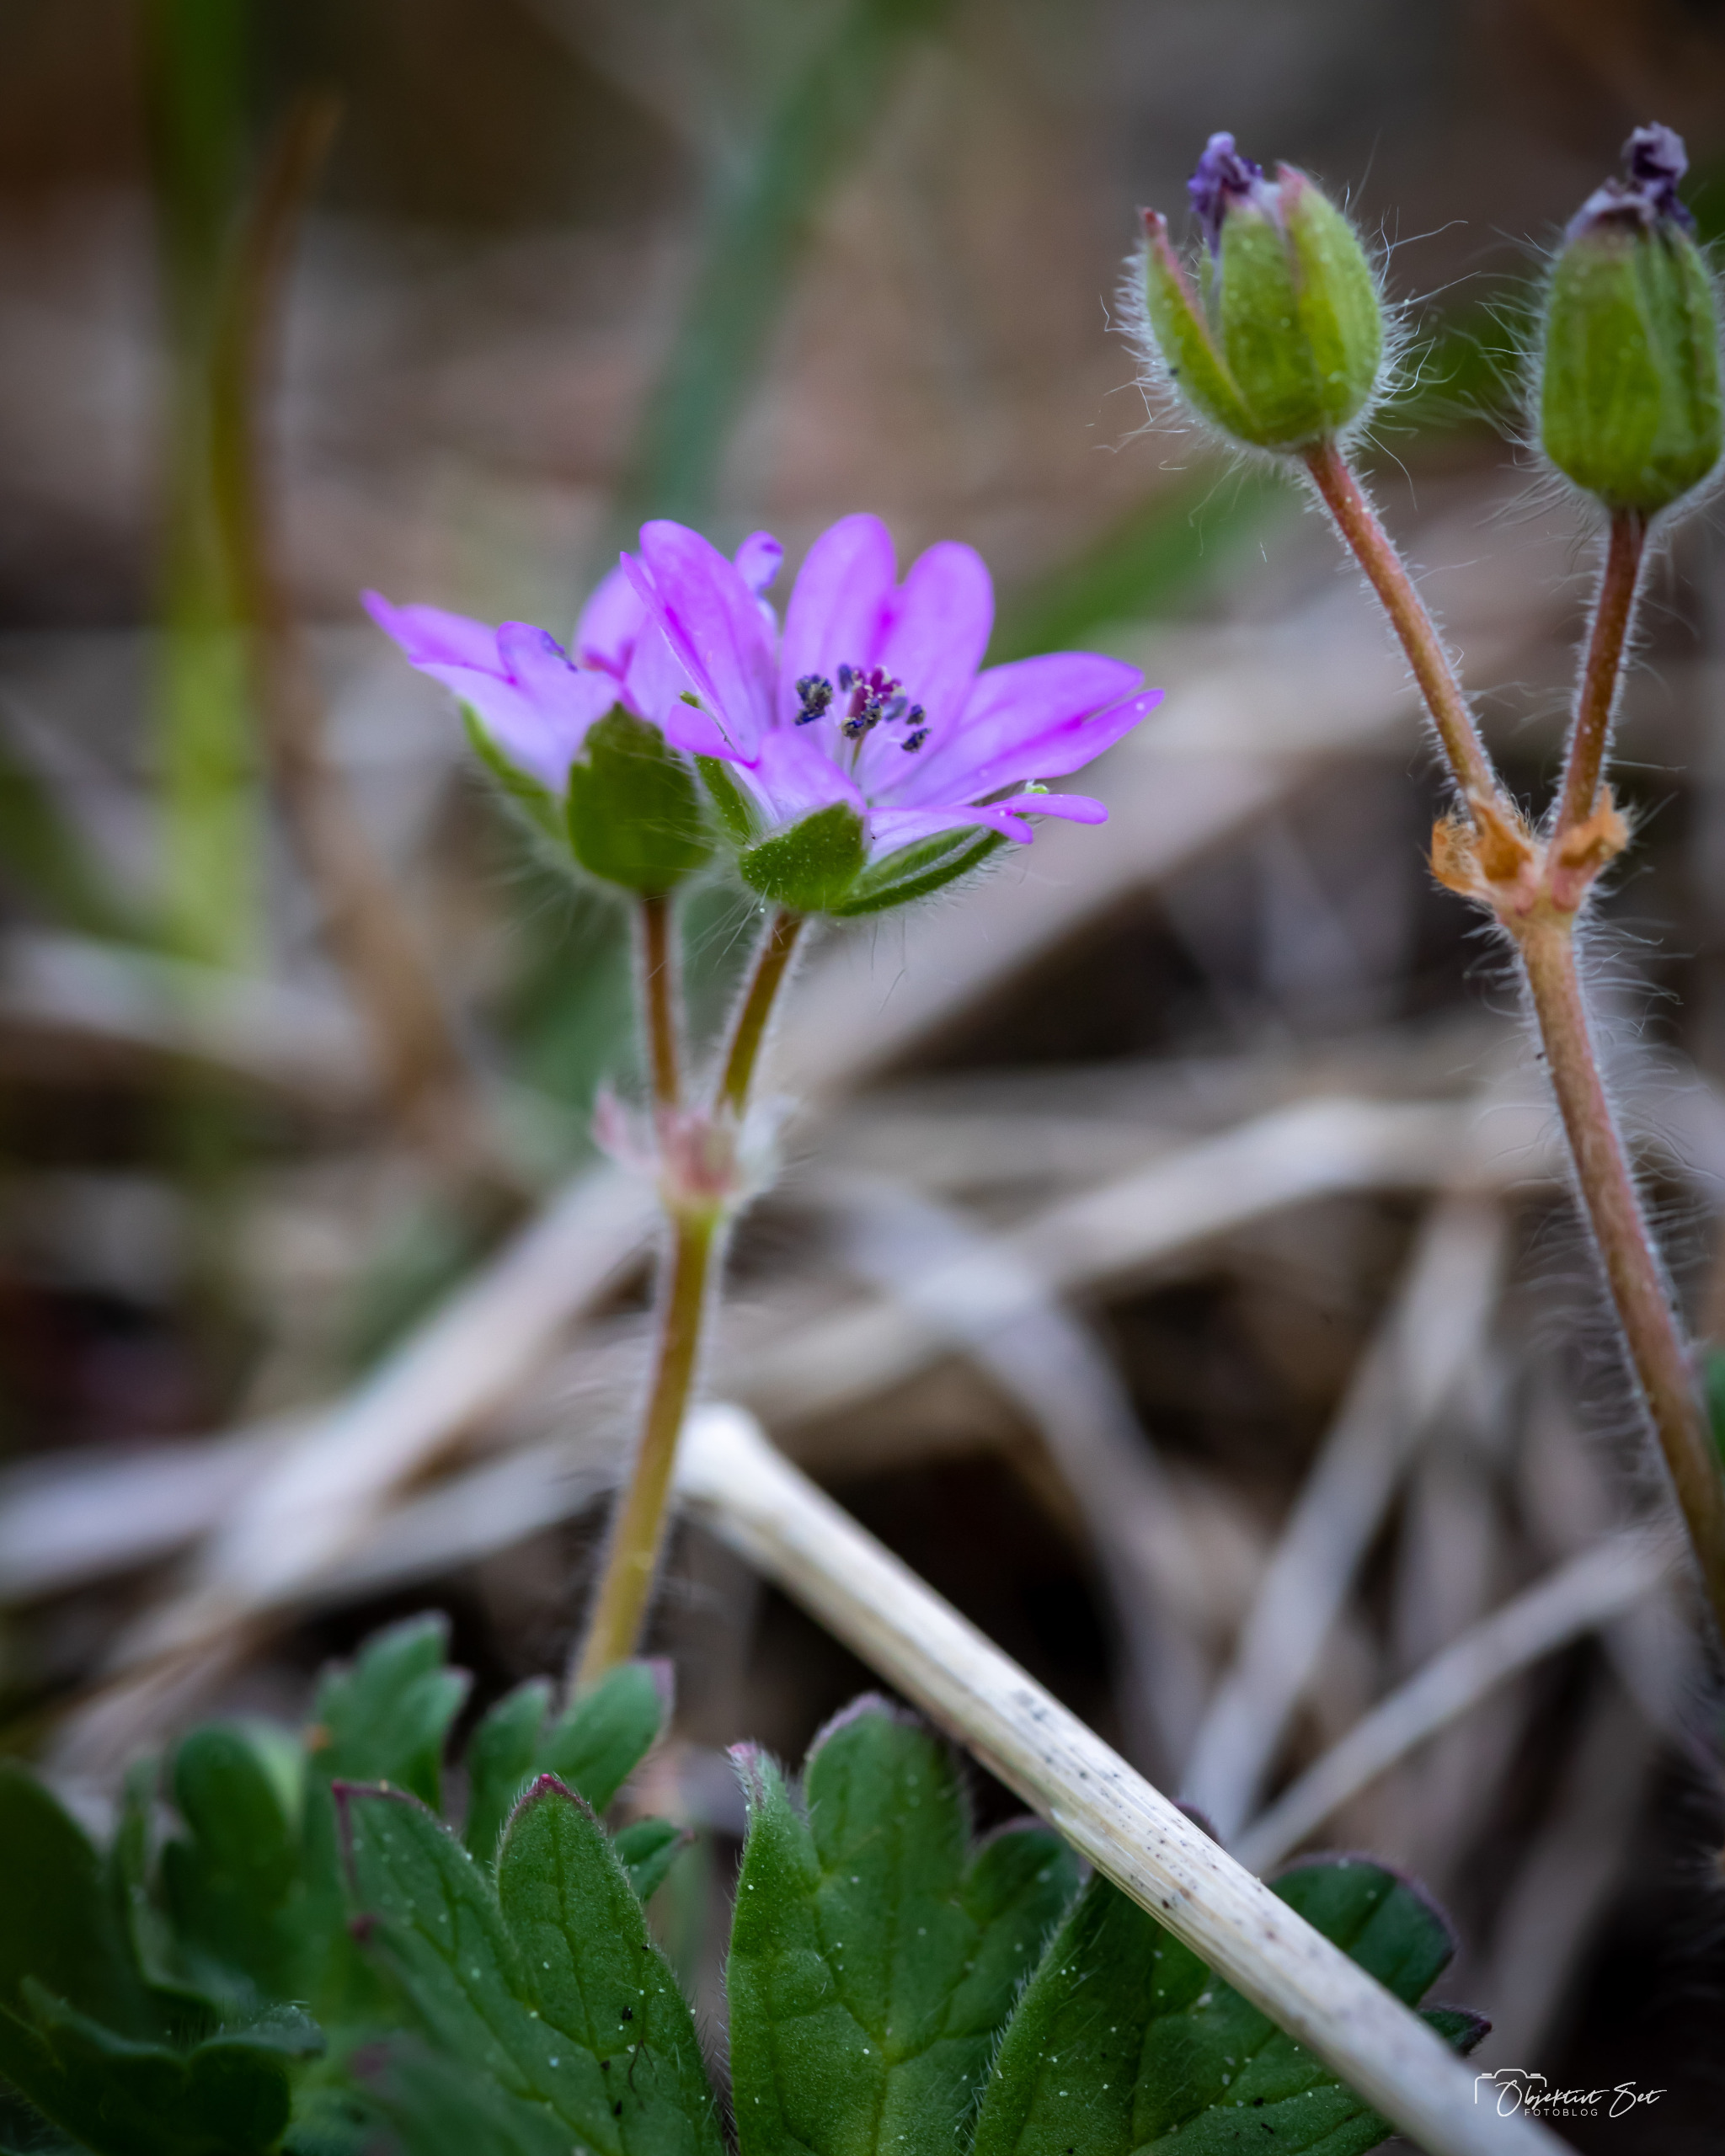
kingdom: Plantae
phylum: Tracheophyta
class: Magnoliopsida
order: Geraniales
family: Geraniaceae
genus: Geranium
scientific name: Geranium molle
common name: Blød storkenæb
